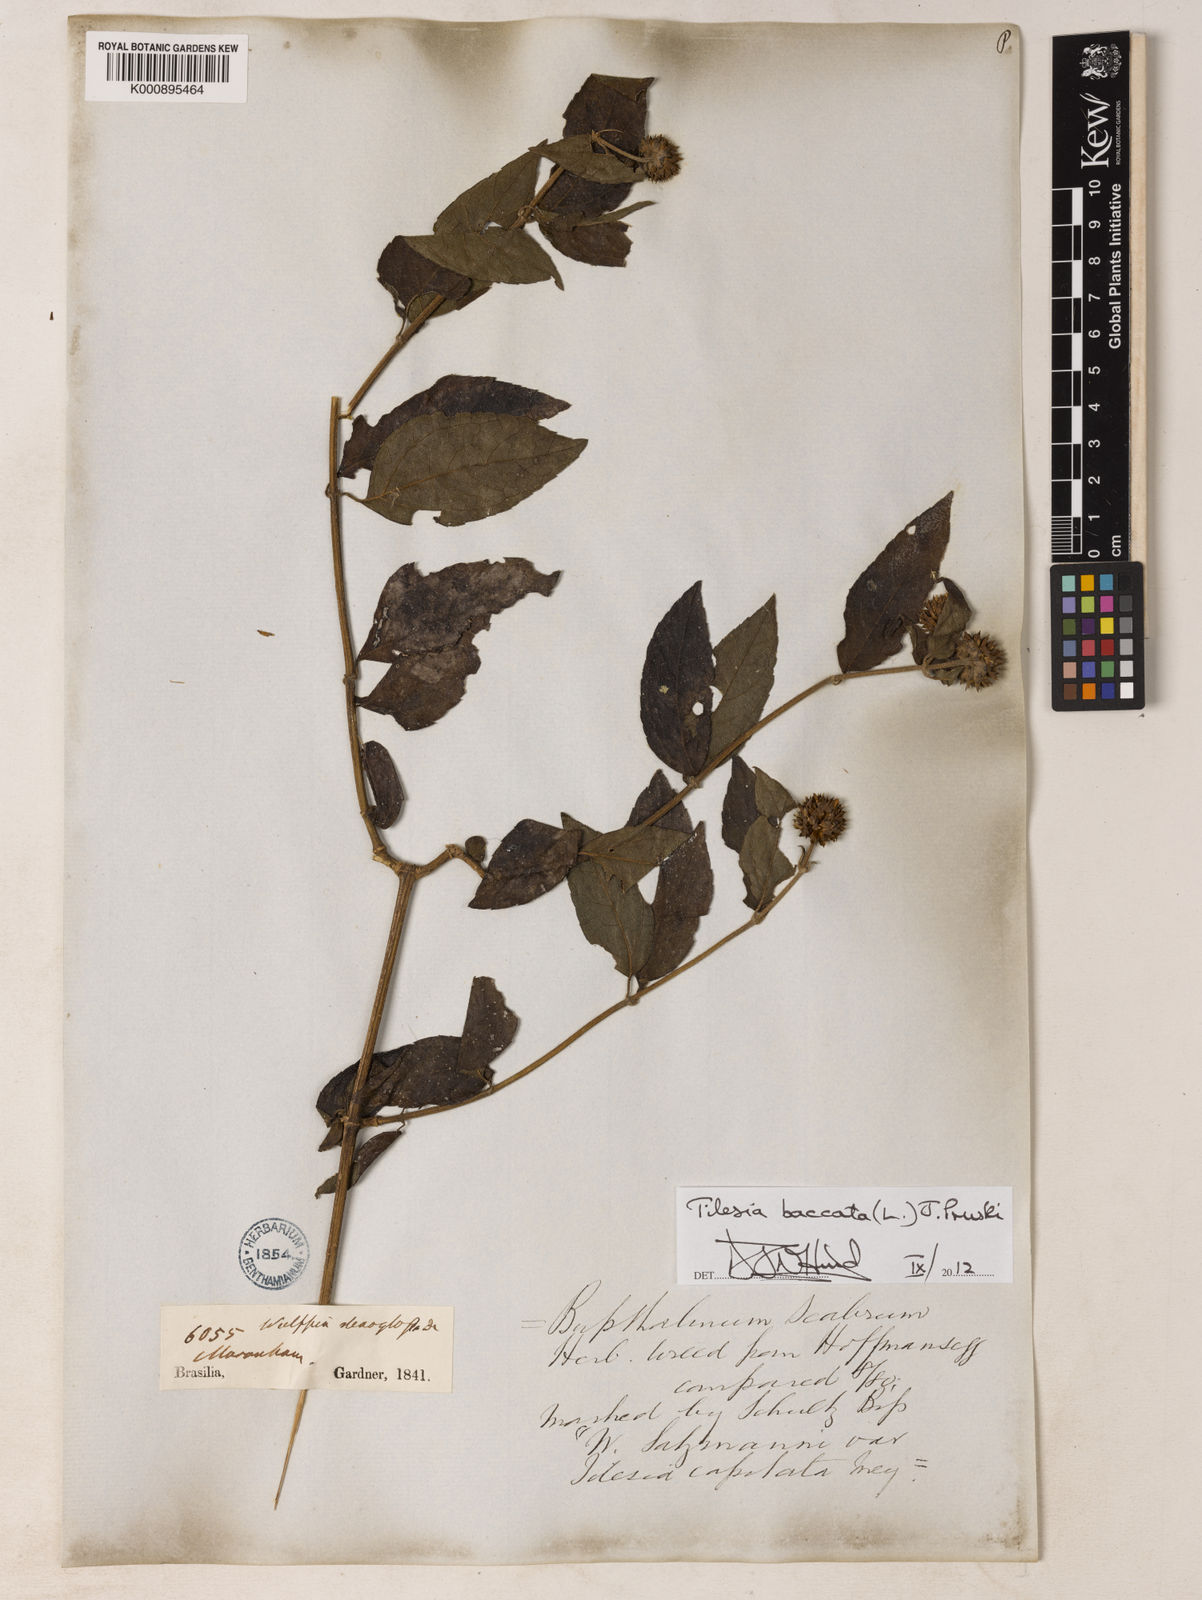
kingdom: Plantae
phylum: Tracheophyta
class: Magnoliopsida
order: Asterales
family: Asteraceae
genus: Tilesia
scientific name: Tilesia baccata
